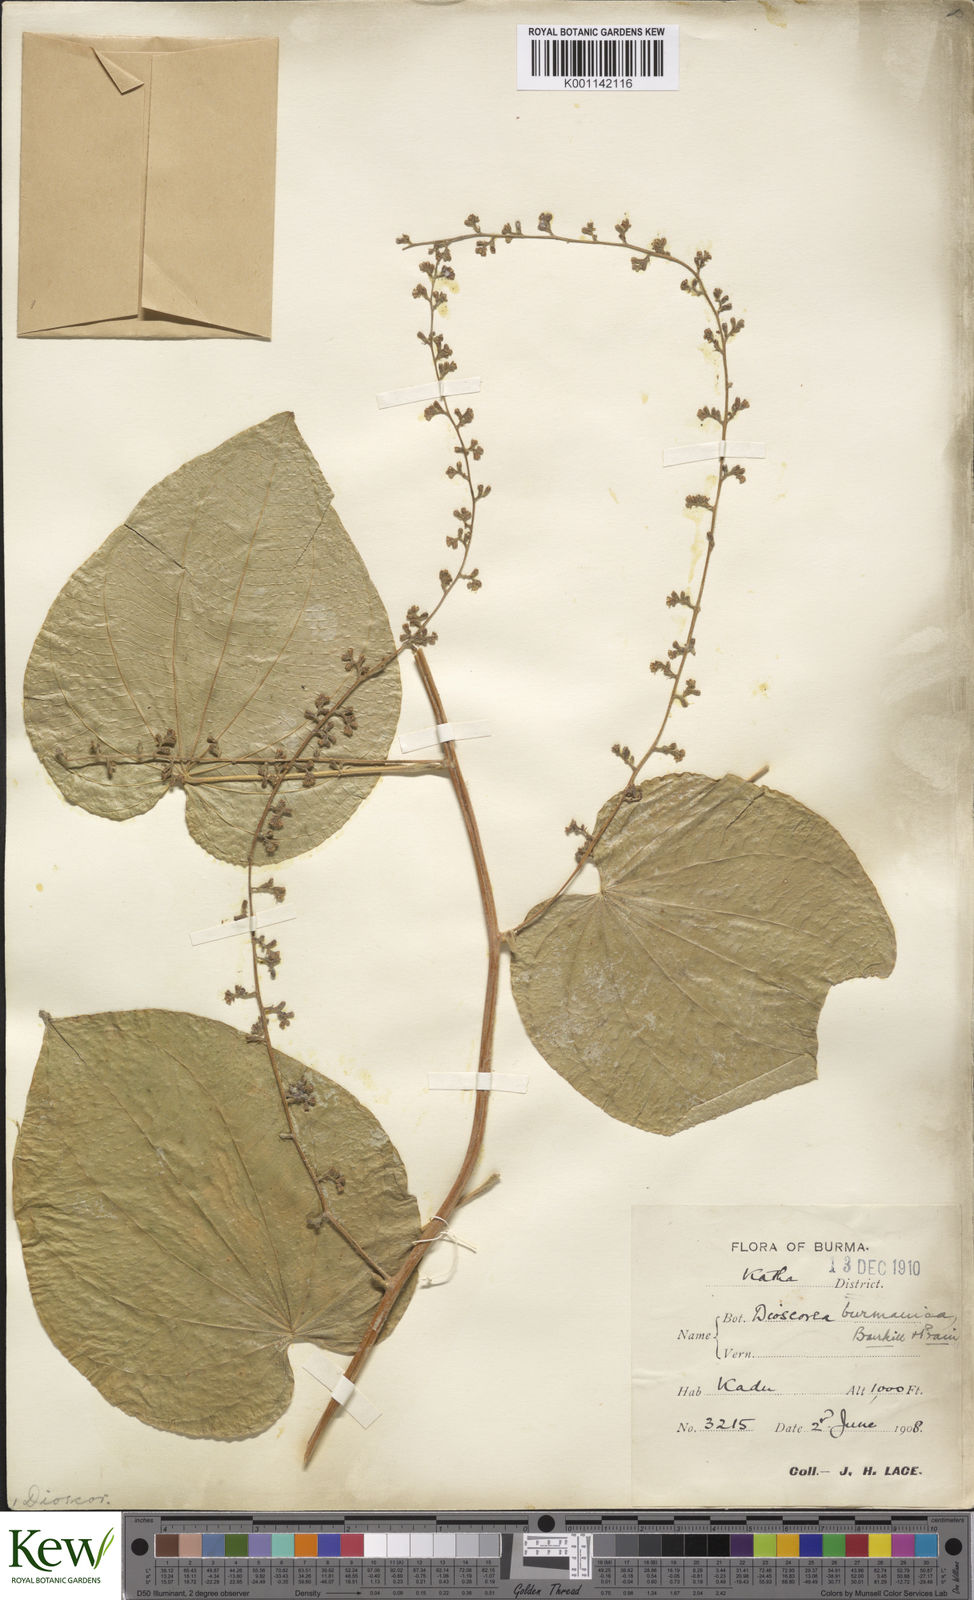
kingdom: Plantae
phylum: Tracheophyta
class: Liliopsida
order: Dioscoreales
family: Dioscoreaceae
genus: Dioscorea
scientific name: Dioscorea birmanica
